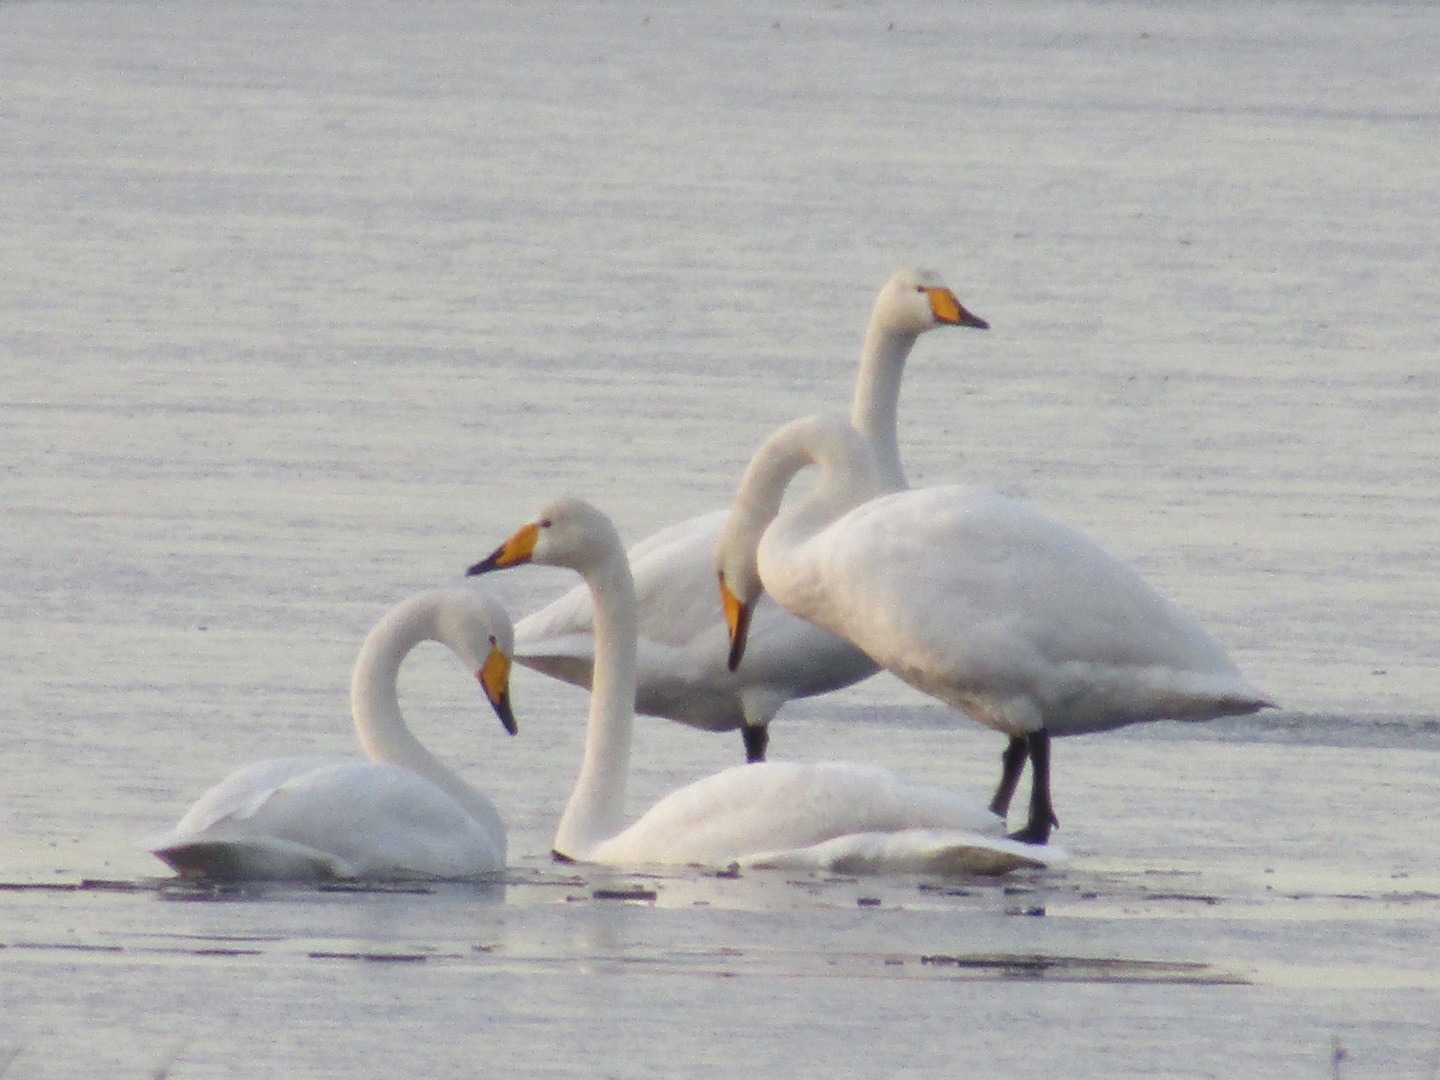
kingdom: Animalia
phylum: Chordata
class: Aves
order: Anseriformes
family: Anatidae
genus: Cygnus
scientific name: Cygnus cygnus
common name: Sangsvane
